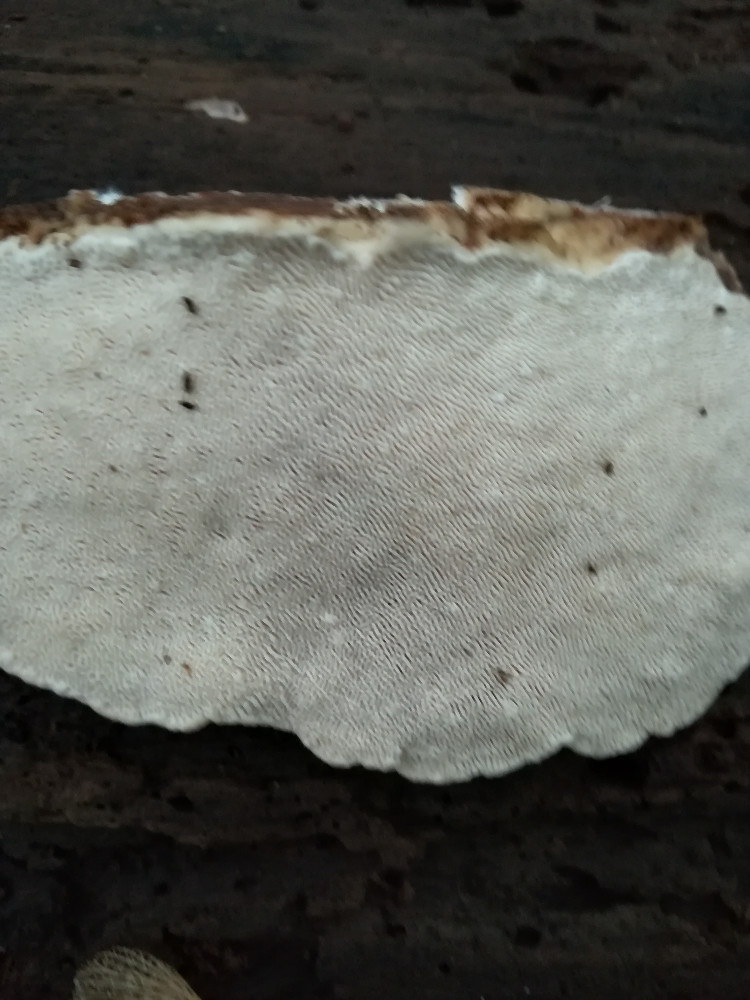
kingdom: Fungi
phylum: Basidiomycota
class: Agaricomycetes
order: Polyporales
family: Polyporaceae
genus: Trametes
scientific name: Trametes gibbosa
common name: puklet læderporesvamp
